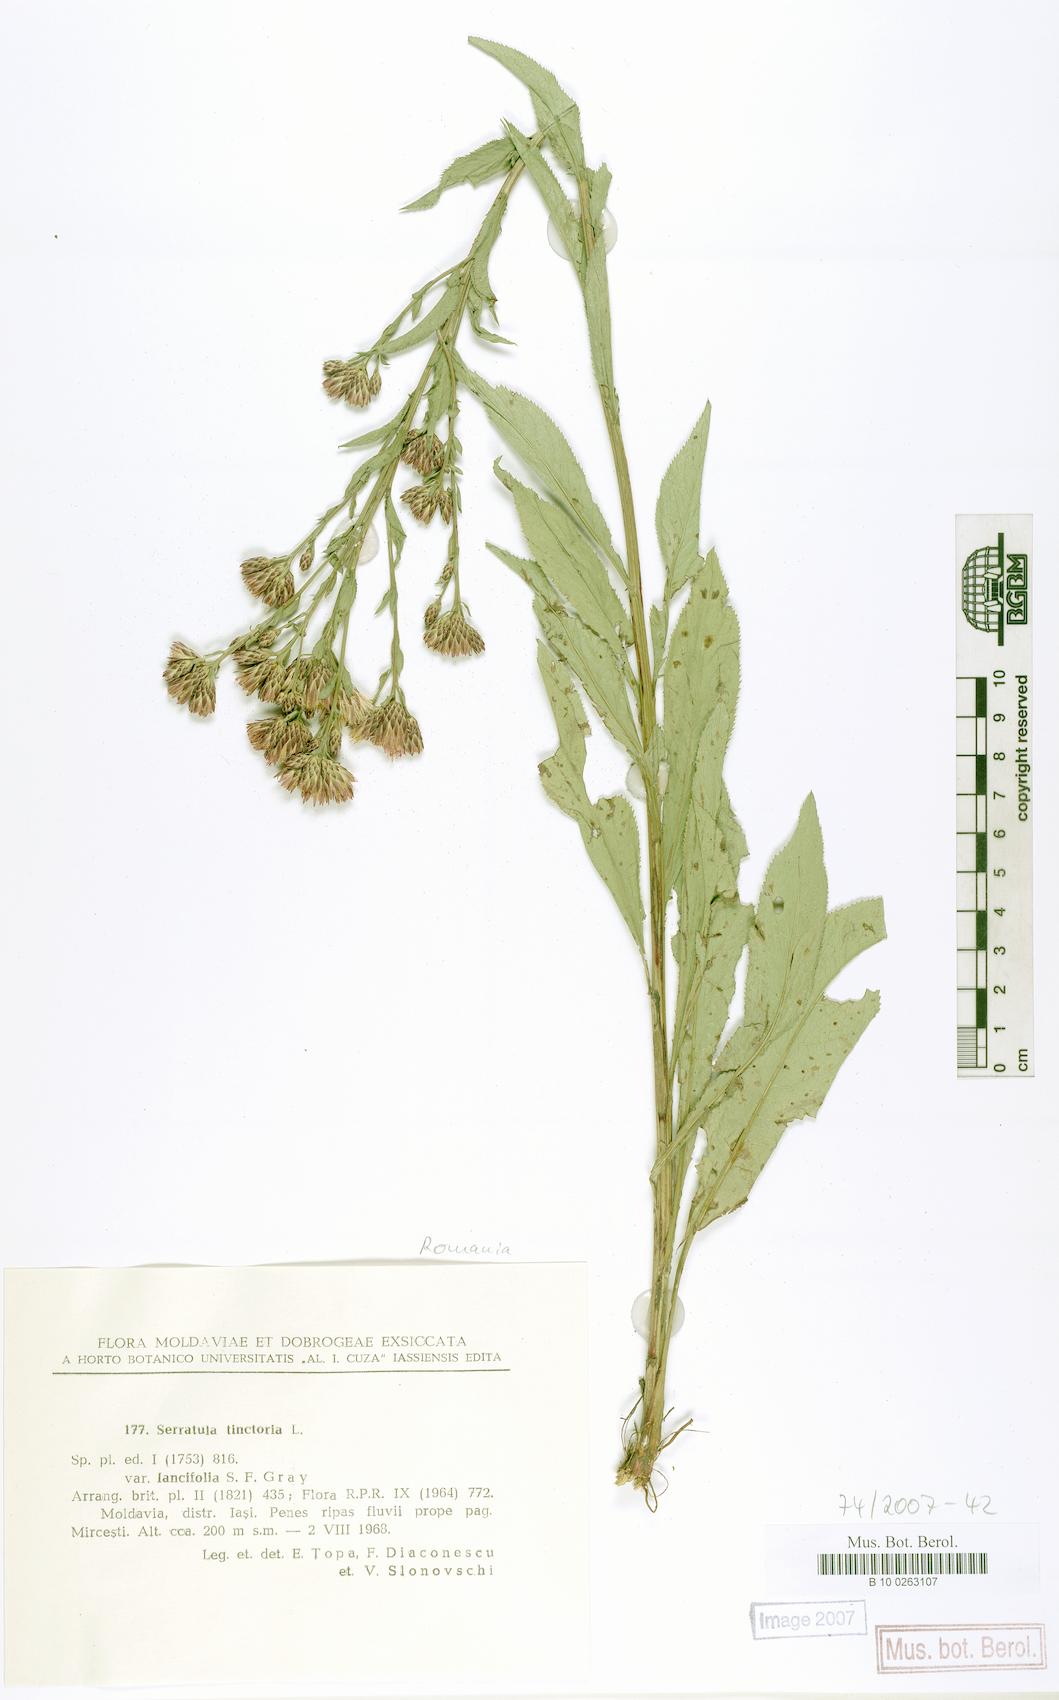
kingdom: Plantae
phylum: Tracheophyta
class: Magnoliopsida
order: Asterales
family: Asteraceae
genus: Serratula
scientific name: Serratula tinctoria
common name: Saw-wort
